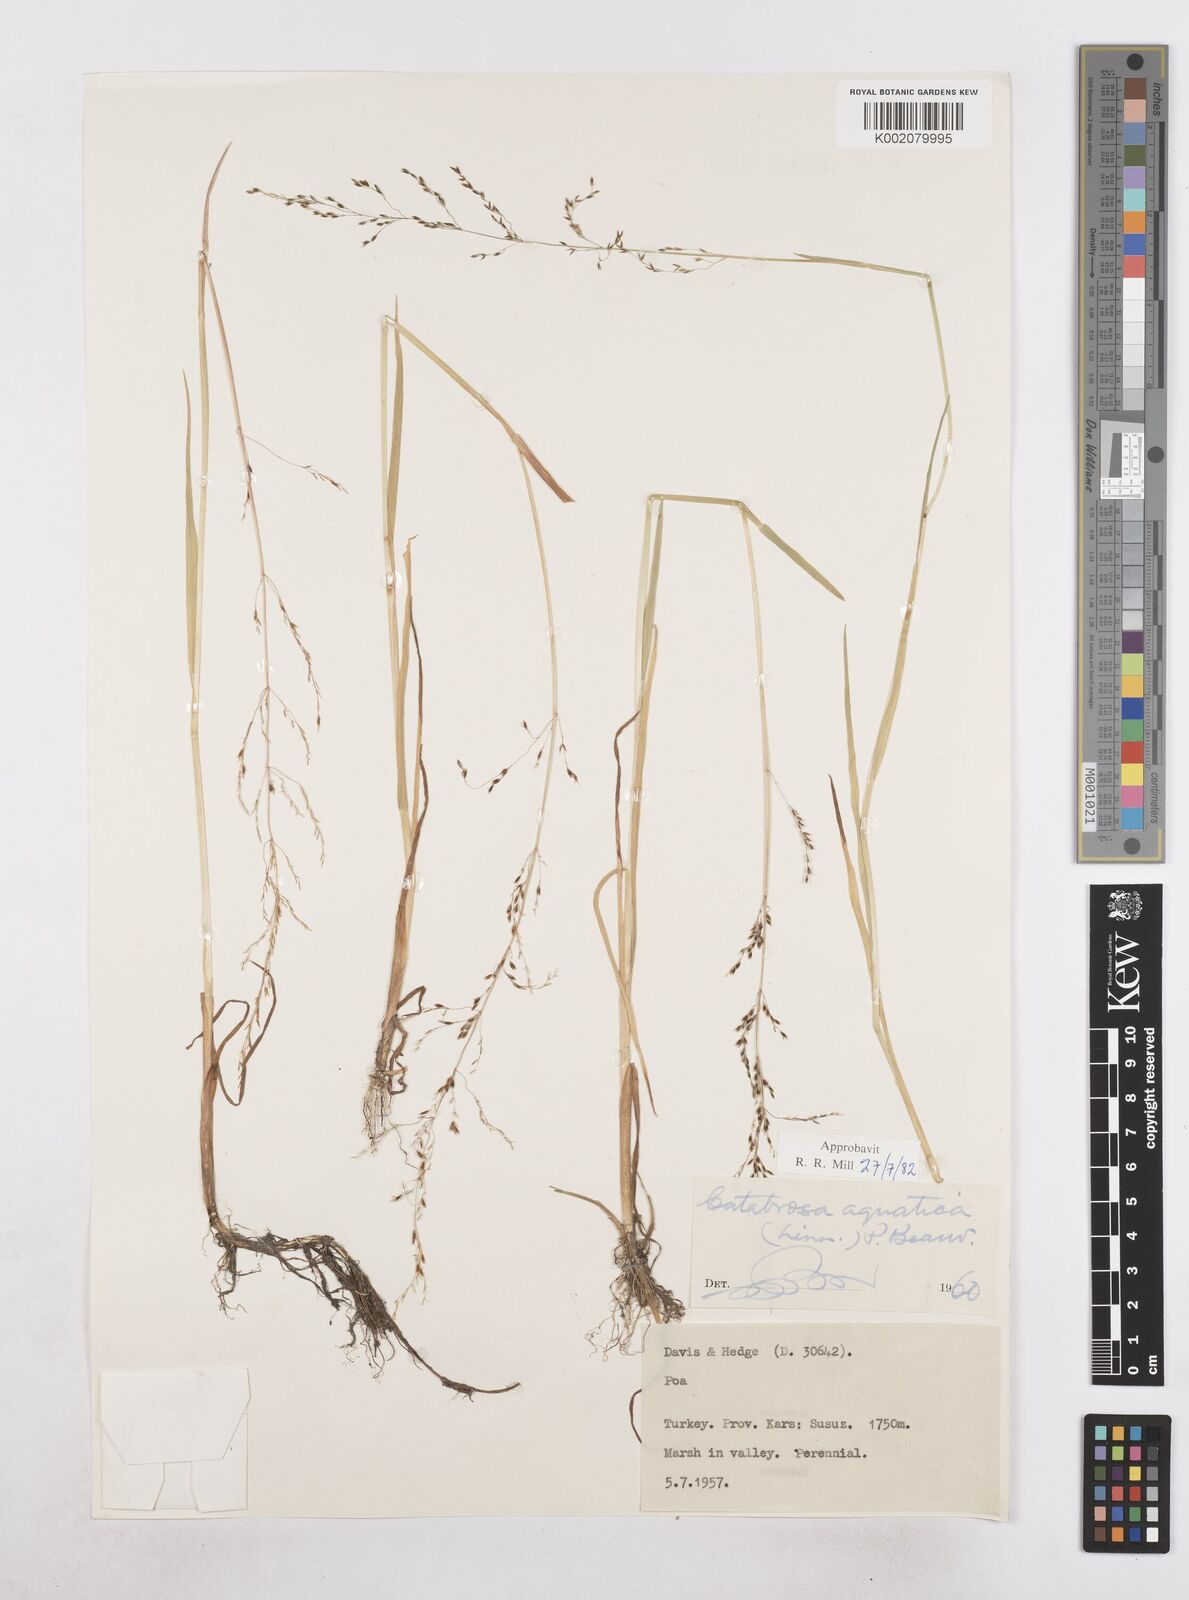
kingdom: Plantae
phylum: Tracheophyta
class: Liliopsida
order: Poales
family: Poaceae
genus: Catabrosa
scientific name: Catabrosa aquatica
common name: Whorl-grass
